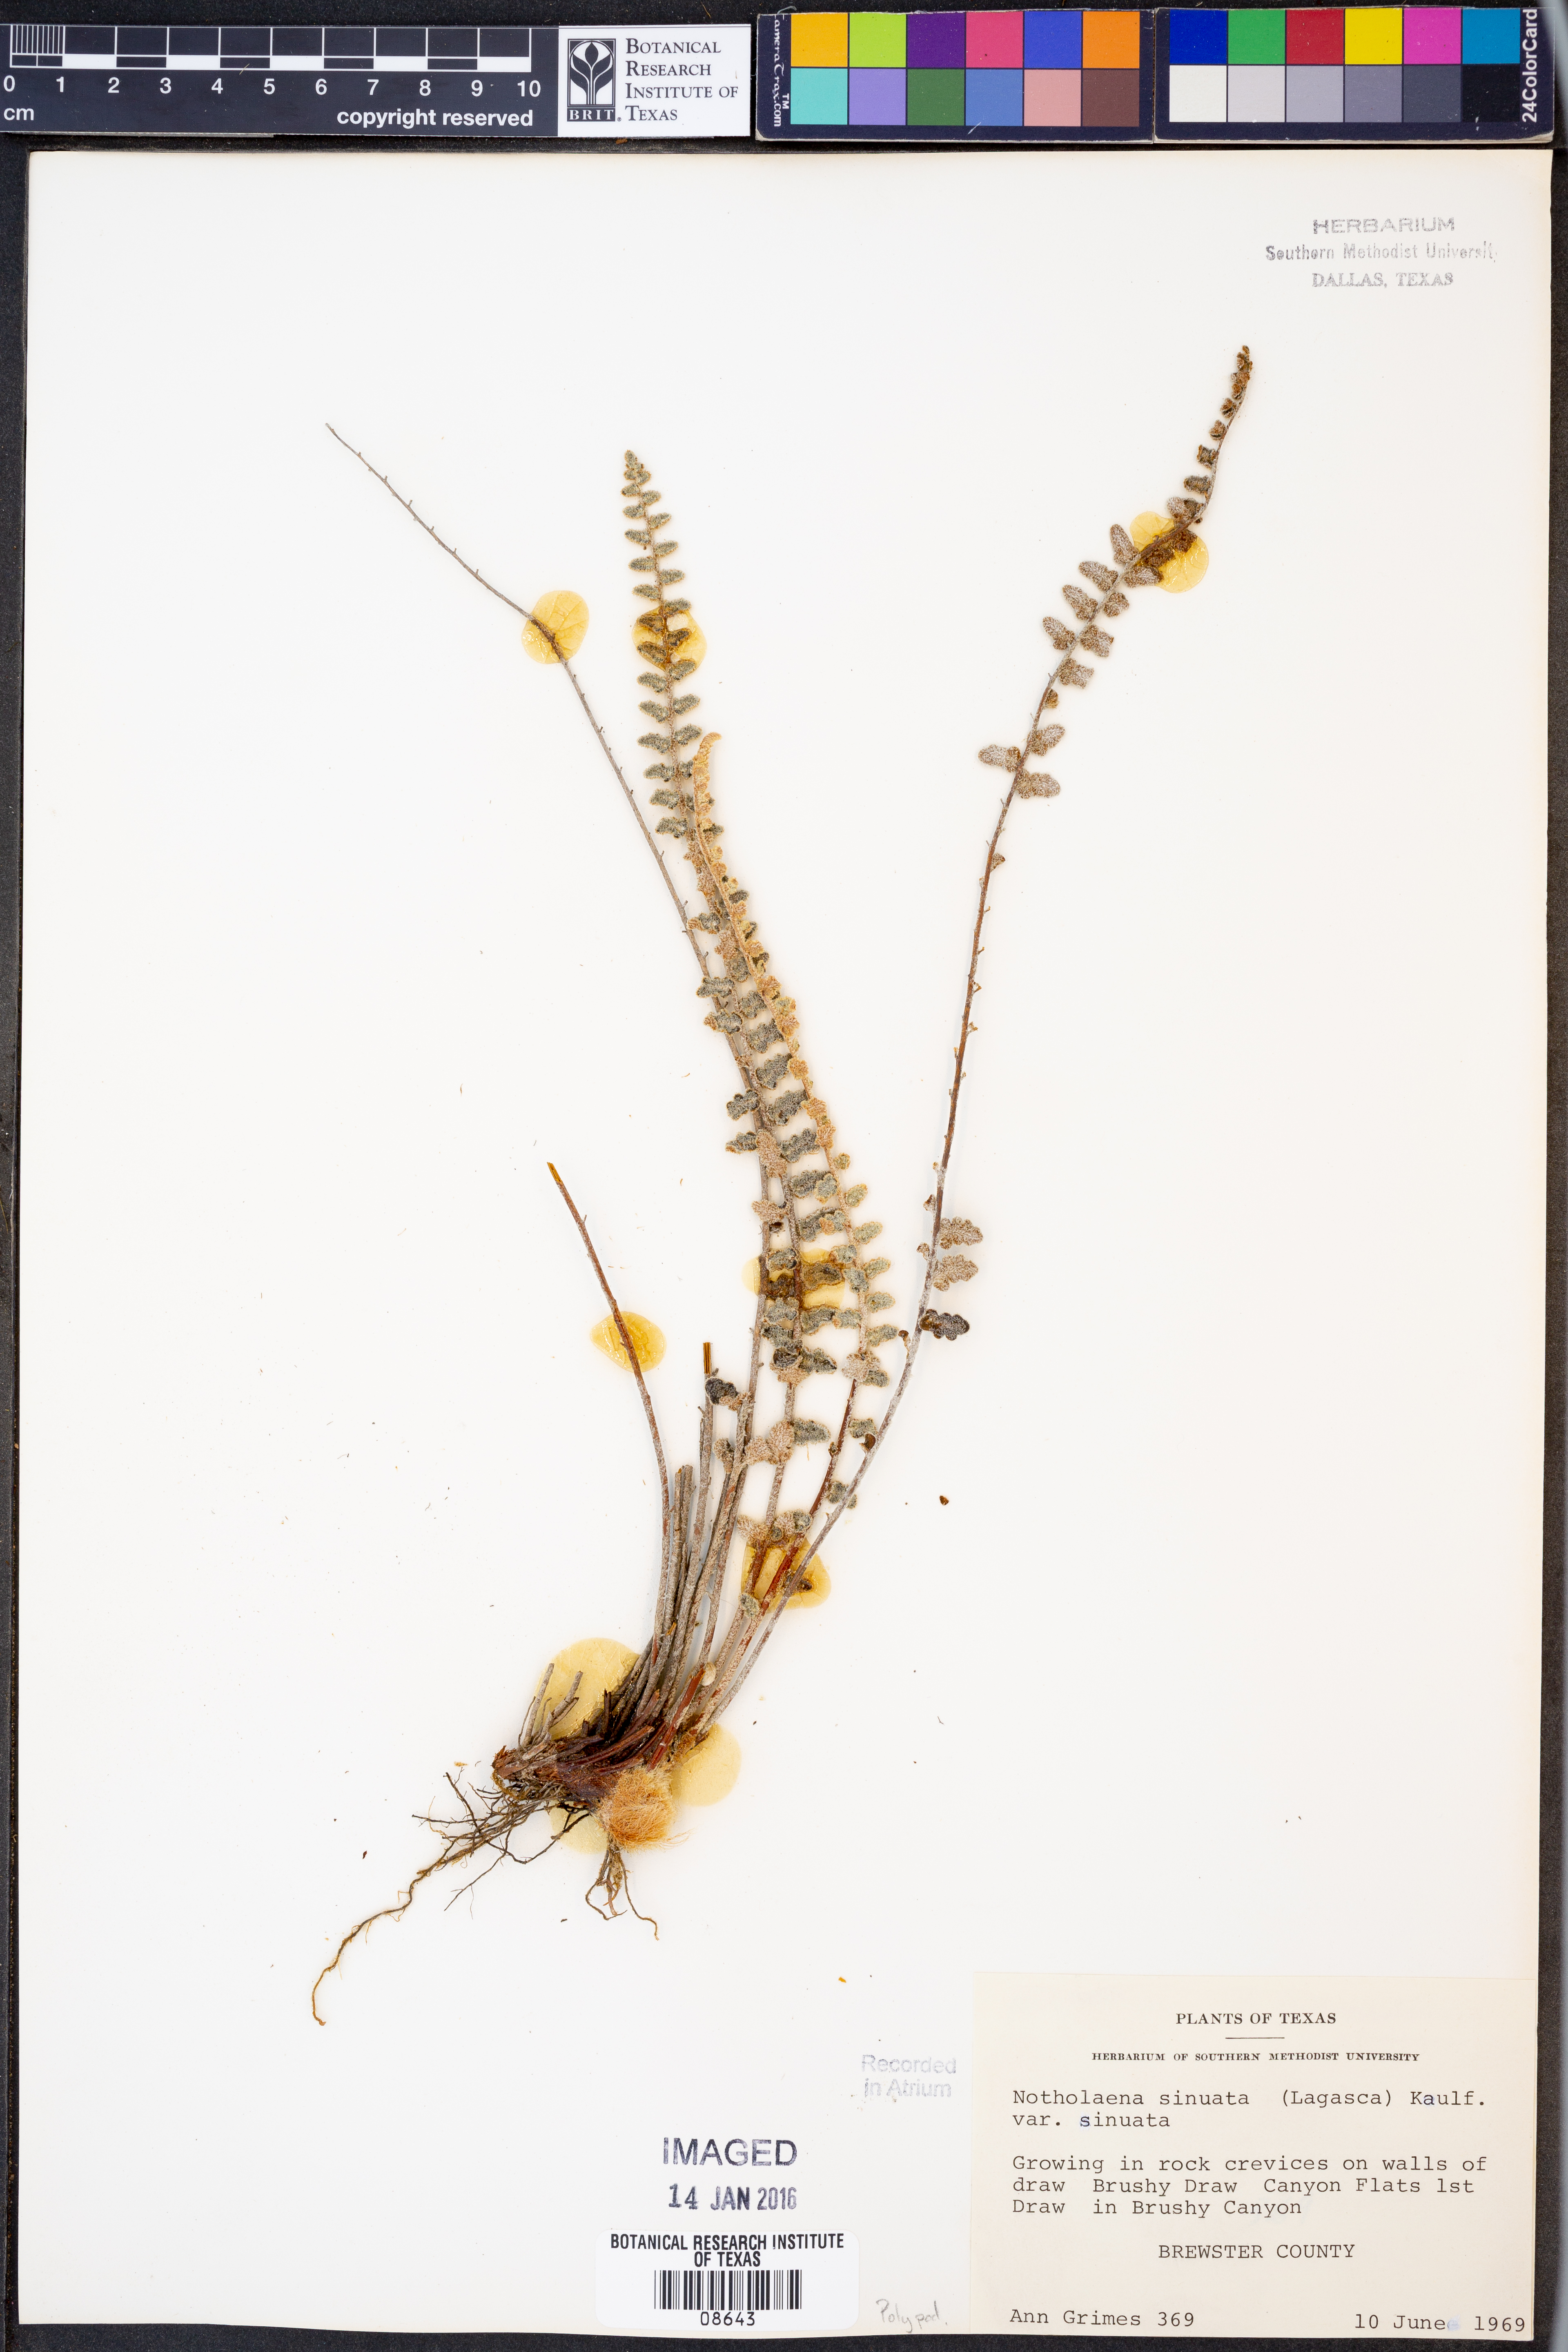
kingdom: Plantae
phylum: Tracheophyta
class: Polypodiopsida
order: Polypodiales
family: Pteridaceae
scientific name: Pteridaceae
